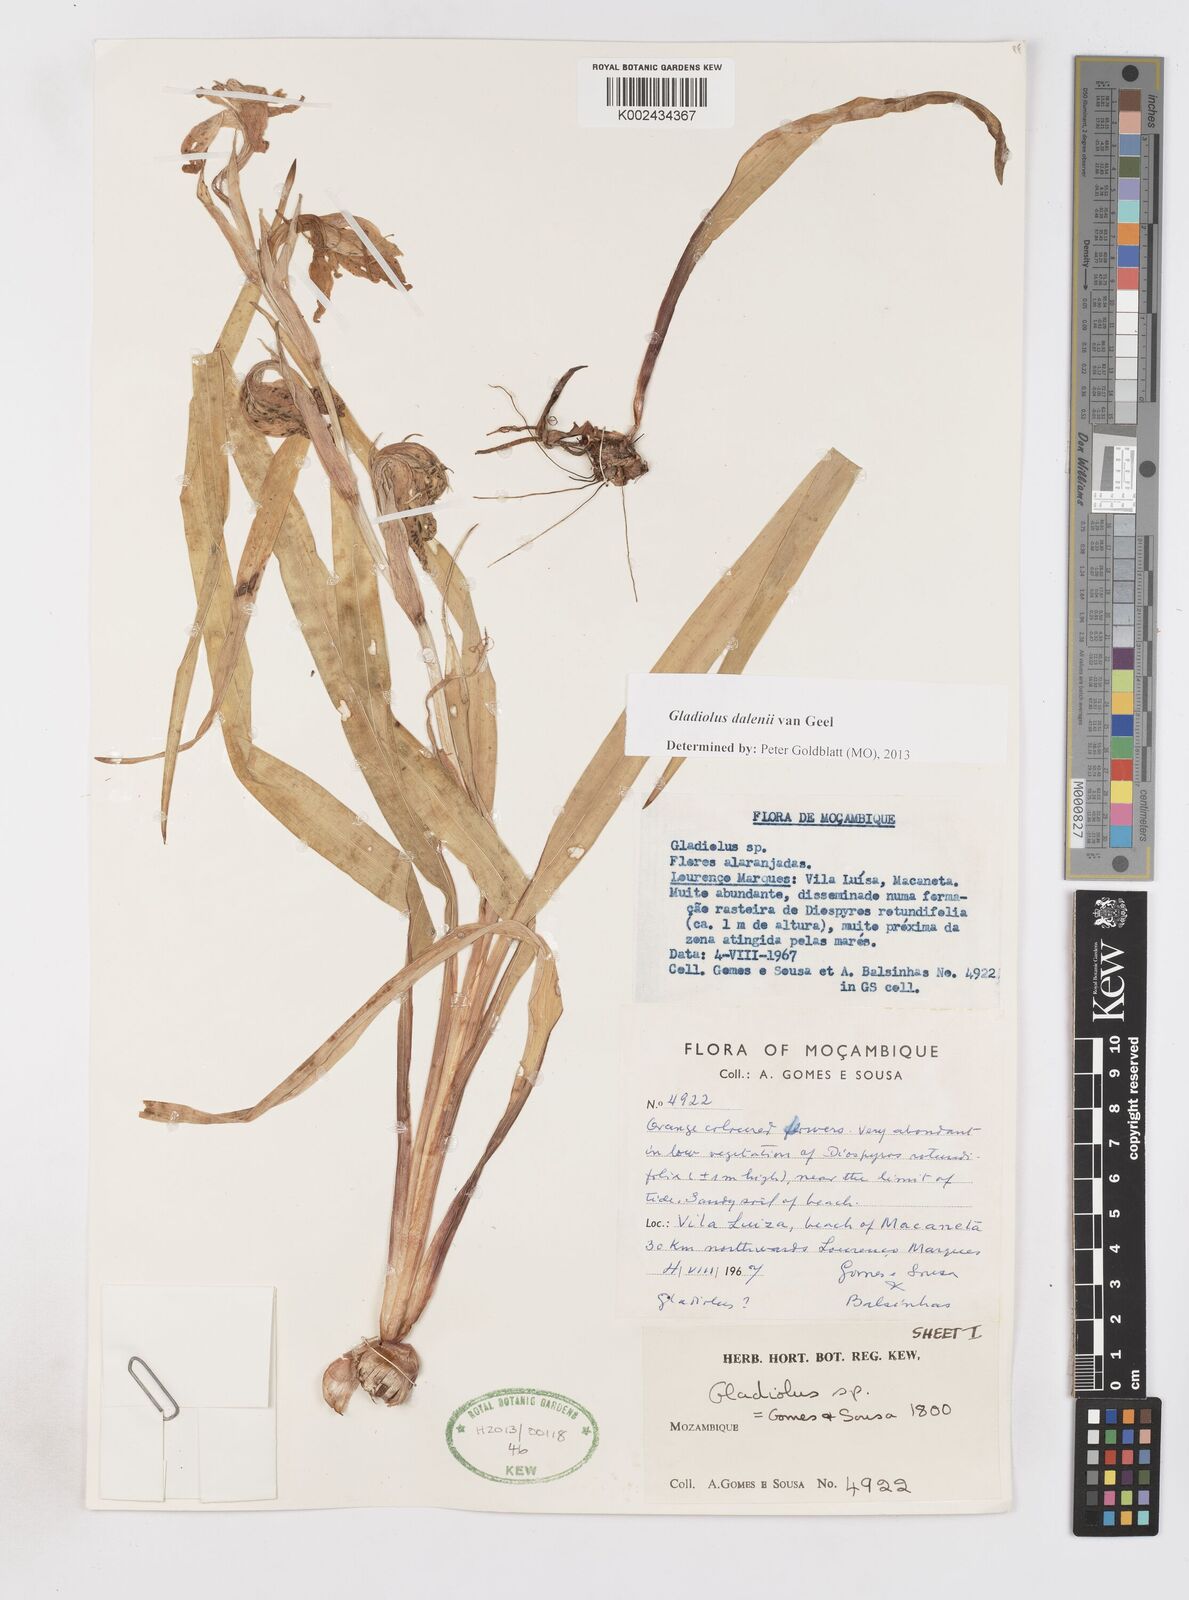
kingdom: Plantae
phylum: Tracheophyta
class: Liliopsida
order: Asparagales
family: Iridaceae
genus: Gladiolus
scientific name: Gladiolus dalenii
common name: Cornflag
